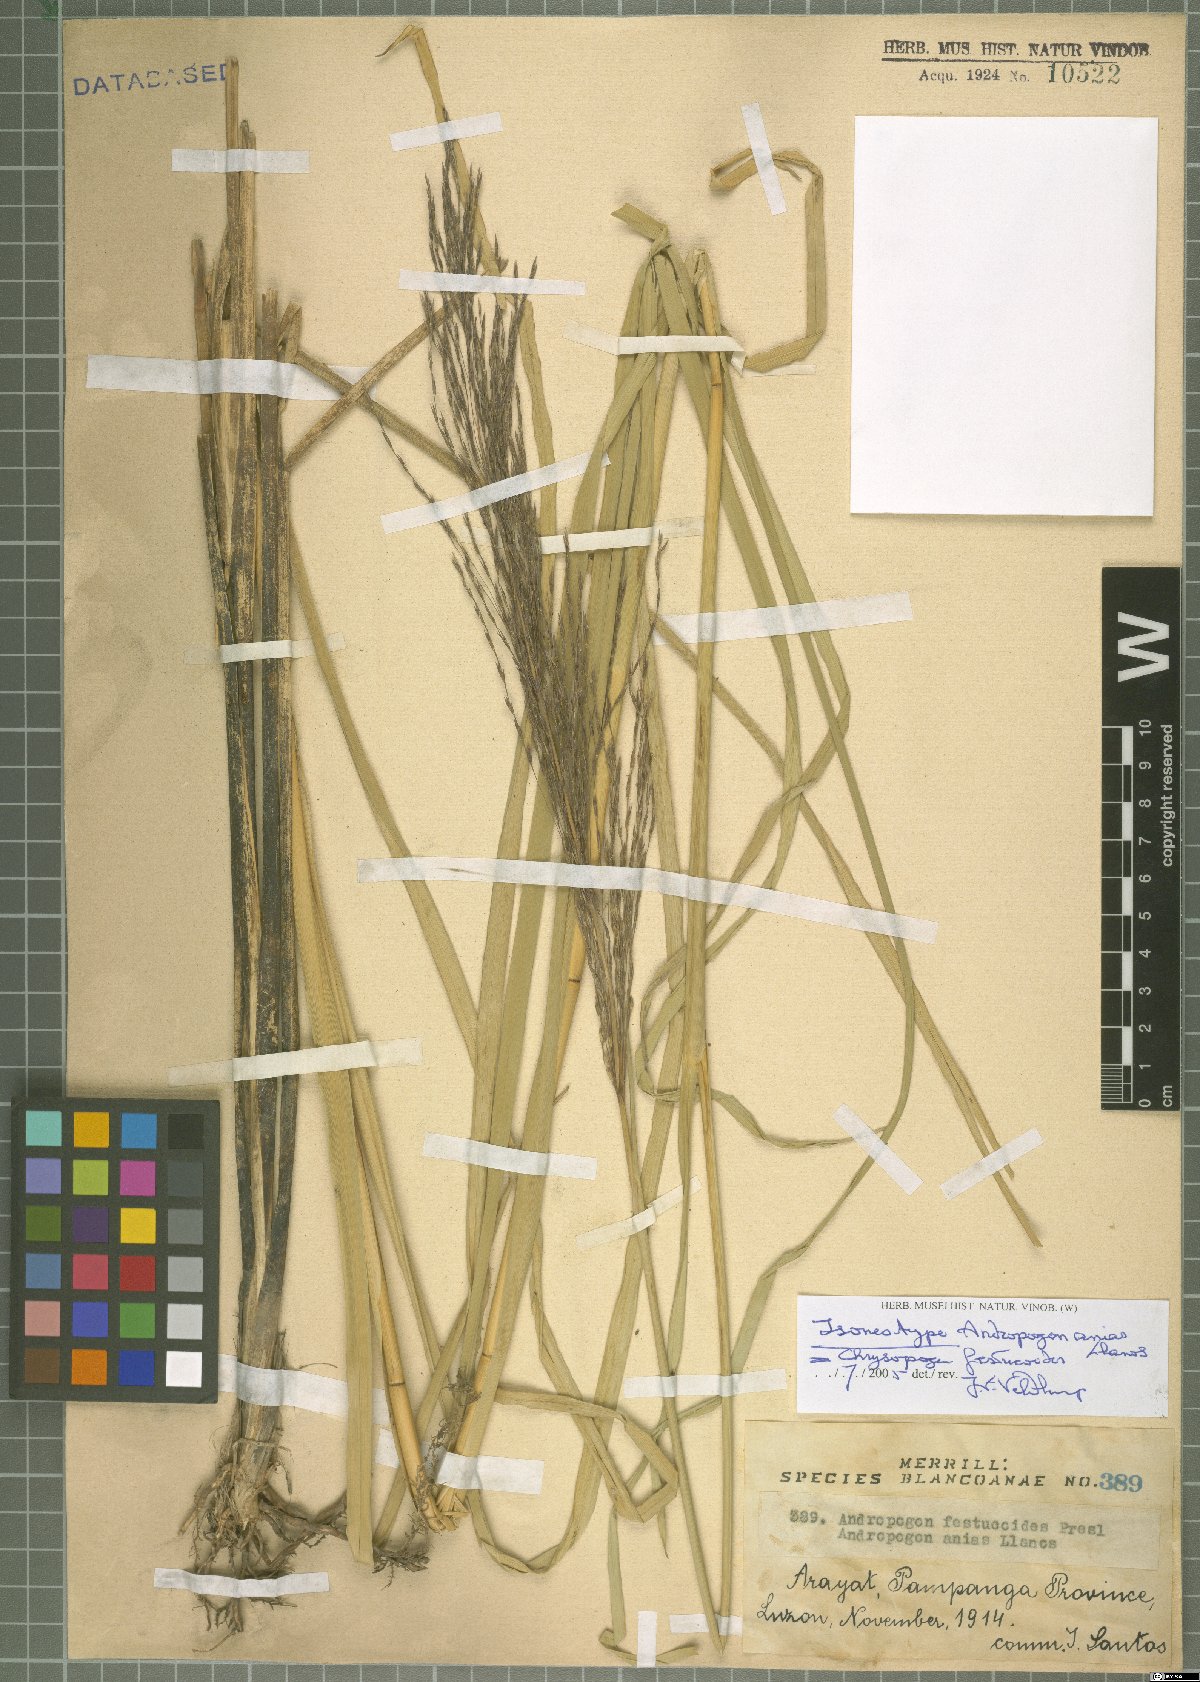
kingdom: Plantae
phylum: Tracheophyta
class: Liliopsida
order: Poales
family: Poaceae
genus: Chrysopogon
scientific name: Chrysopogon festucoides
